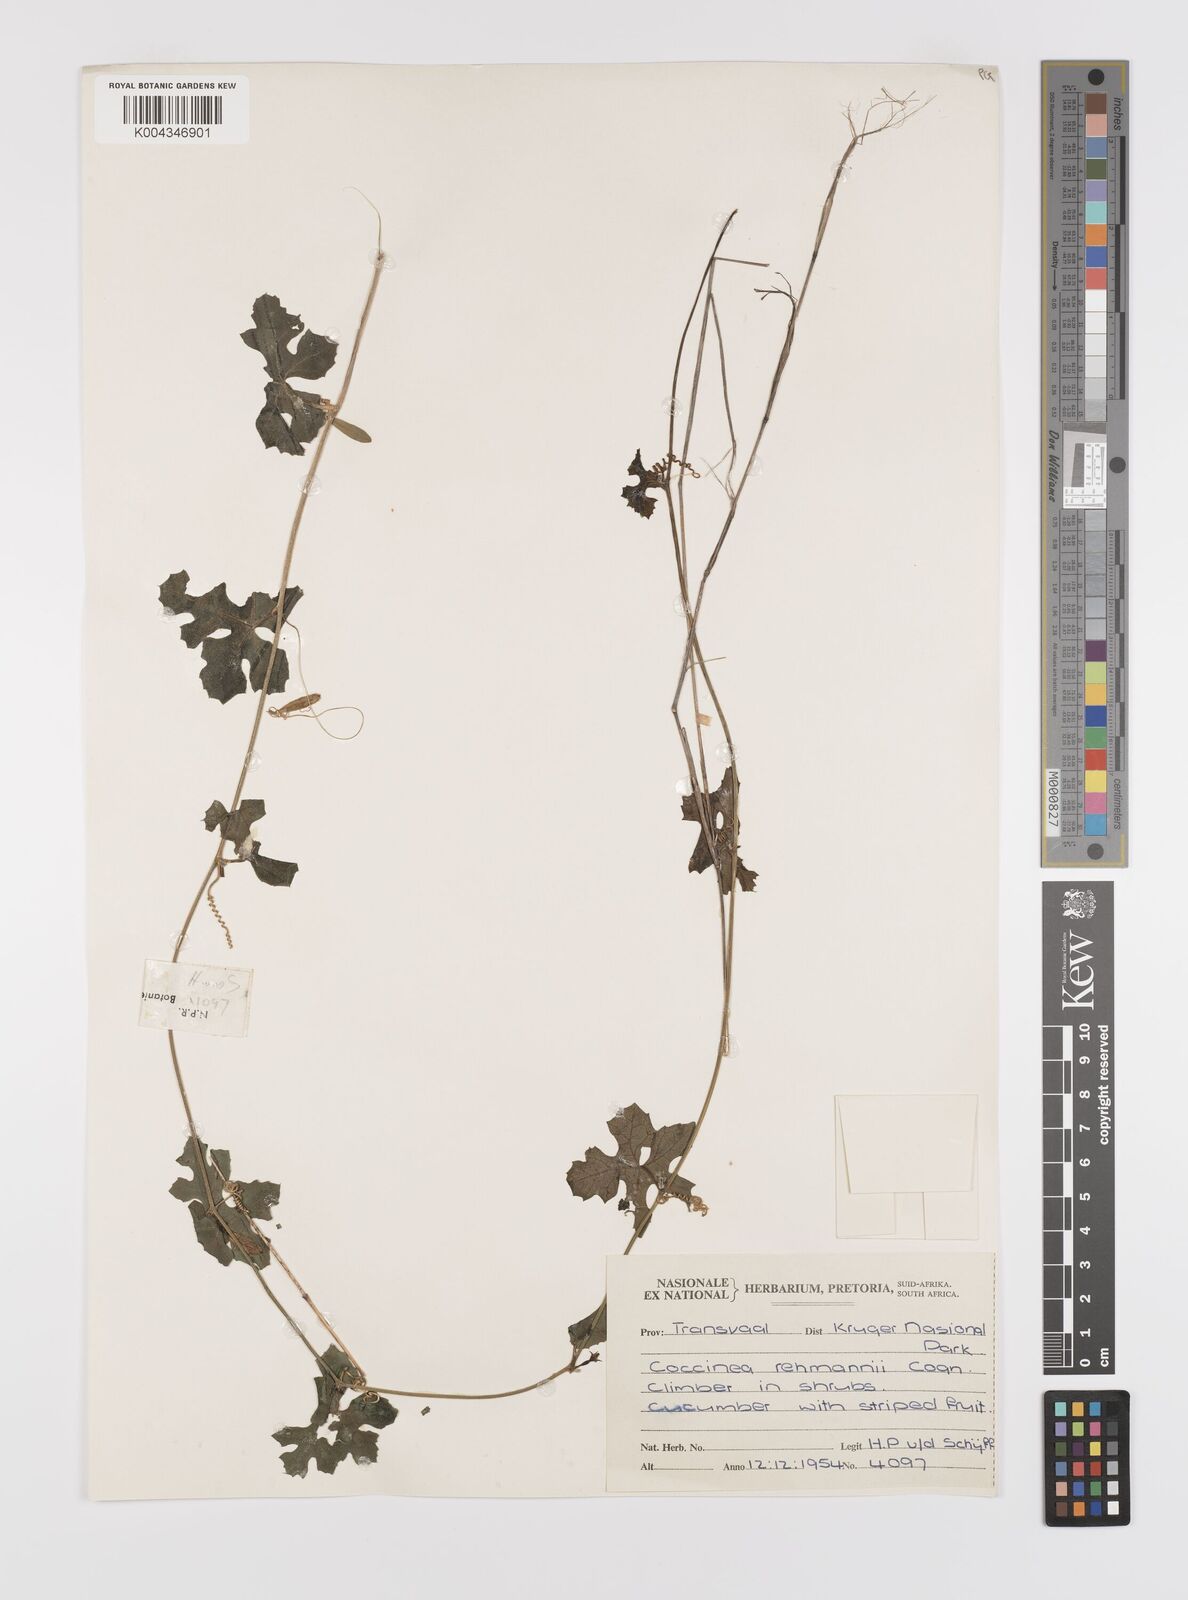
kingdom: Plantae
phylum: Tracheophyta
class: Magnoliopsida
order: Cucurbitales
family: Cucurbitaceae
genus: Coccinia
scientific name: Coccinia rehmannii
